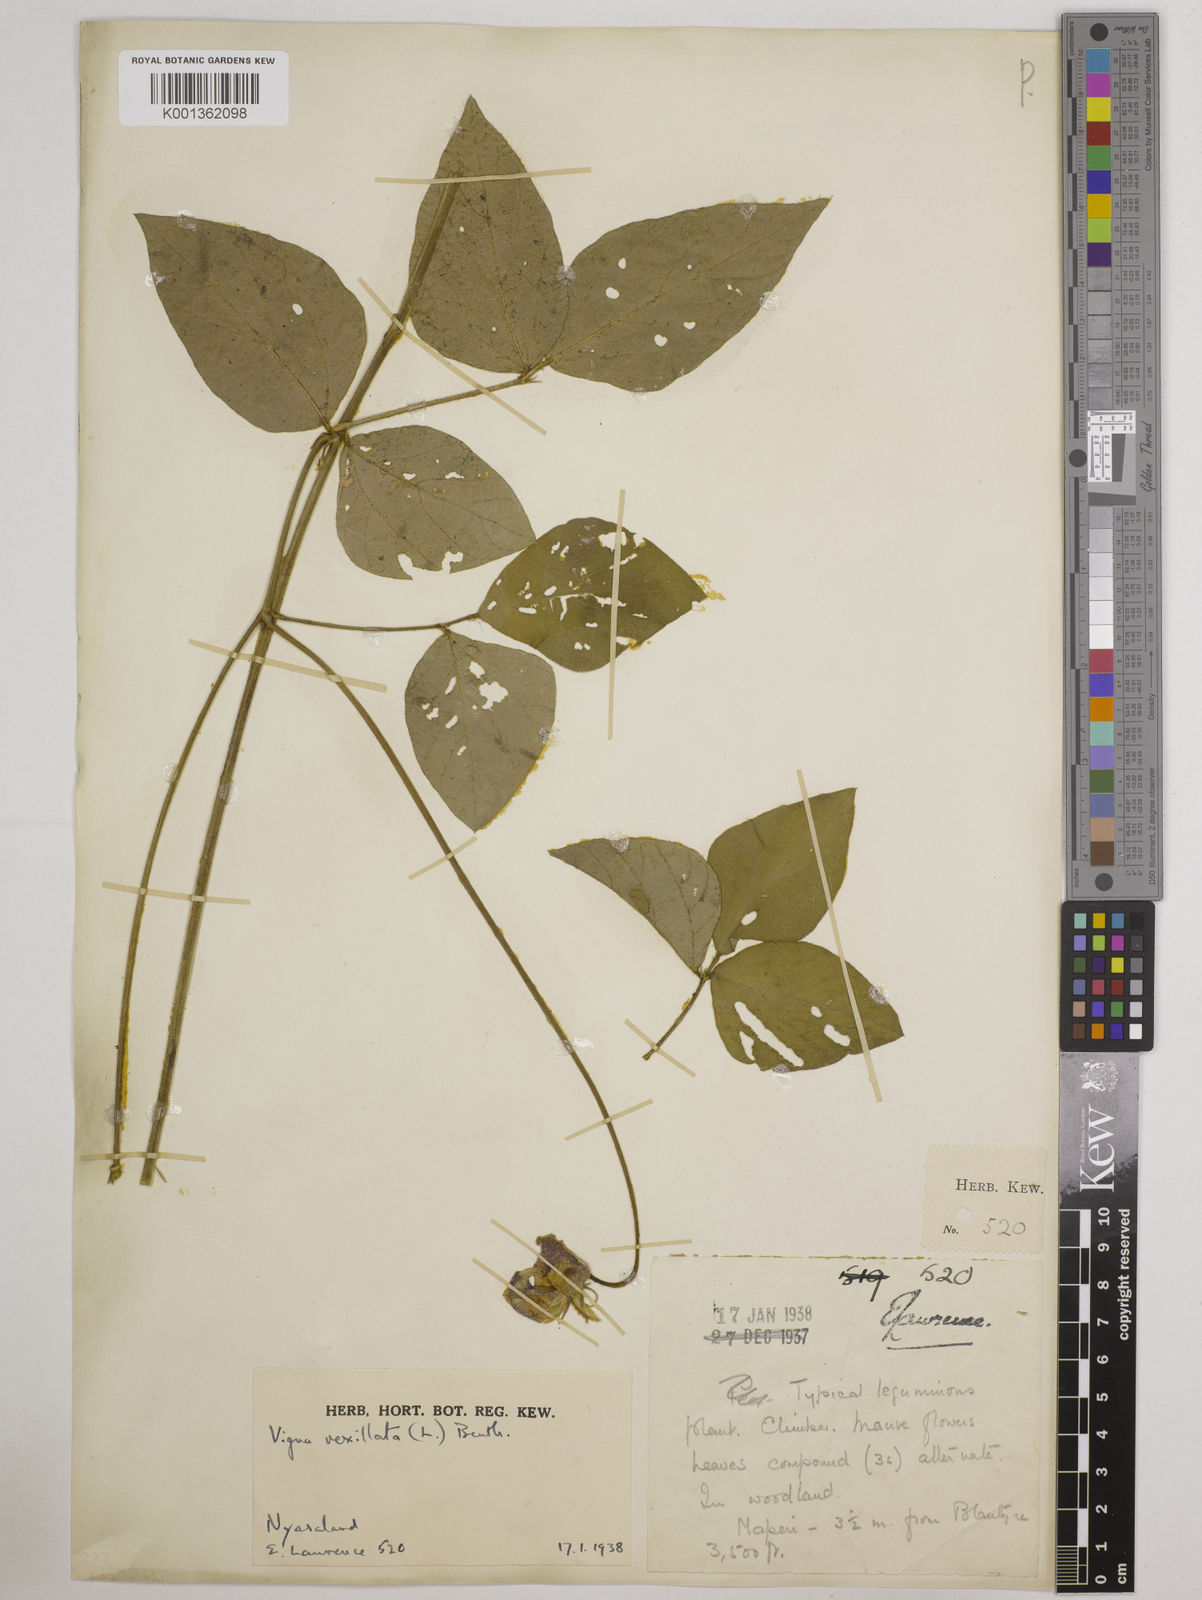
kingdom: Plantae
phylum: Tracheophyta
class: Magnoliopsida
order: Fabales
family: Fabaceae
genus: Vigna
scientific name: Vigna vexillata
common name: Zombi pea
